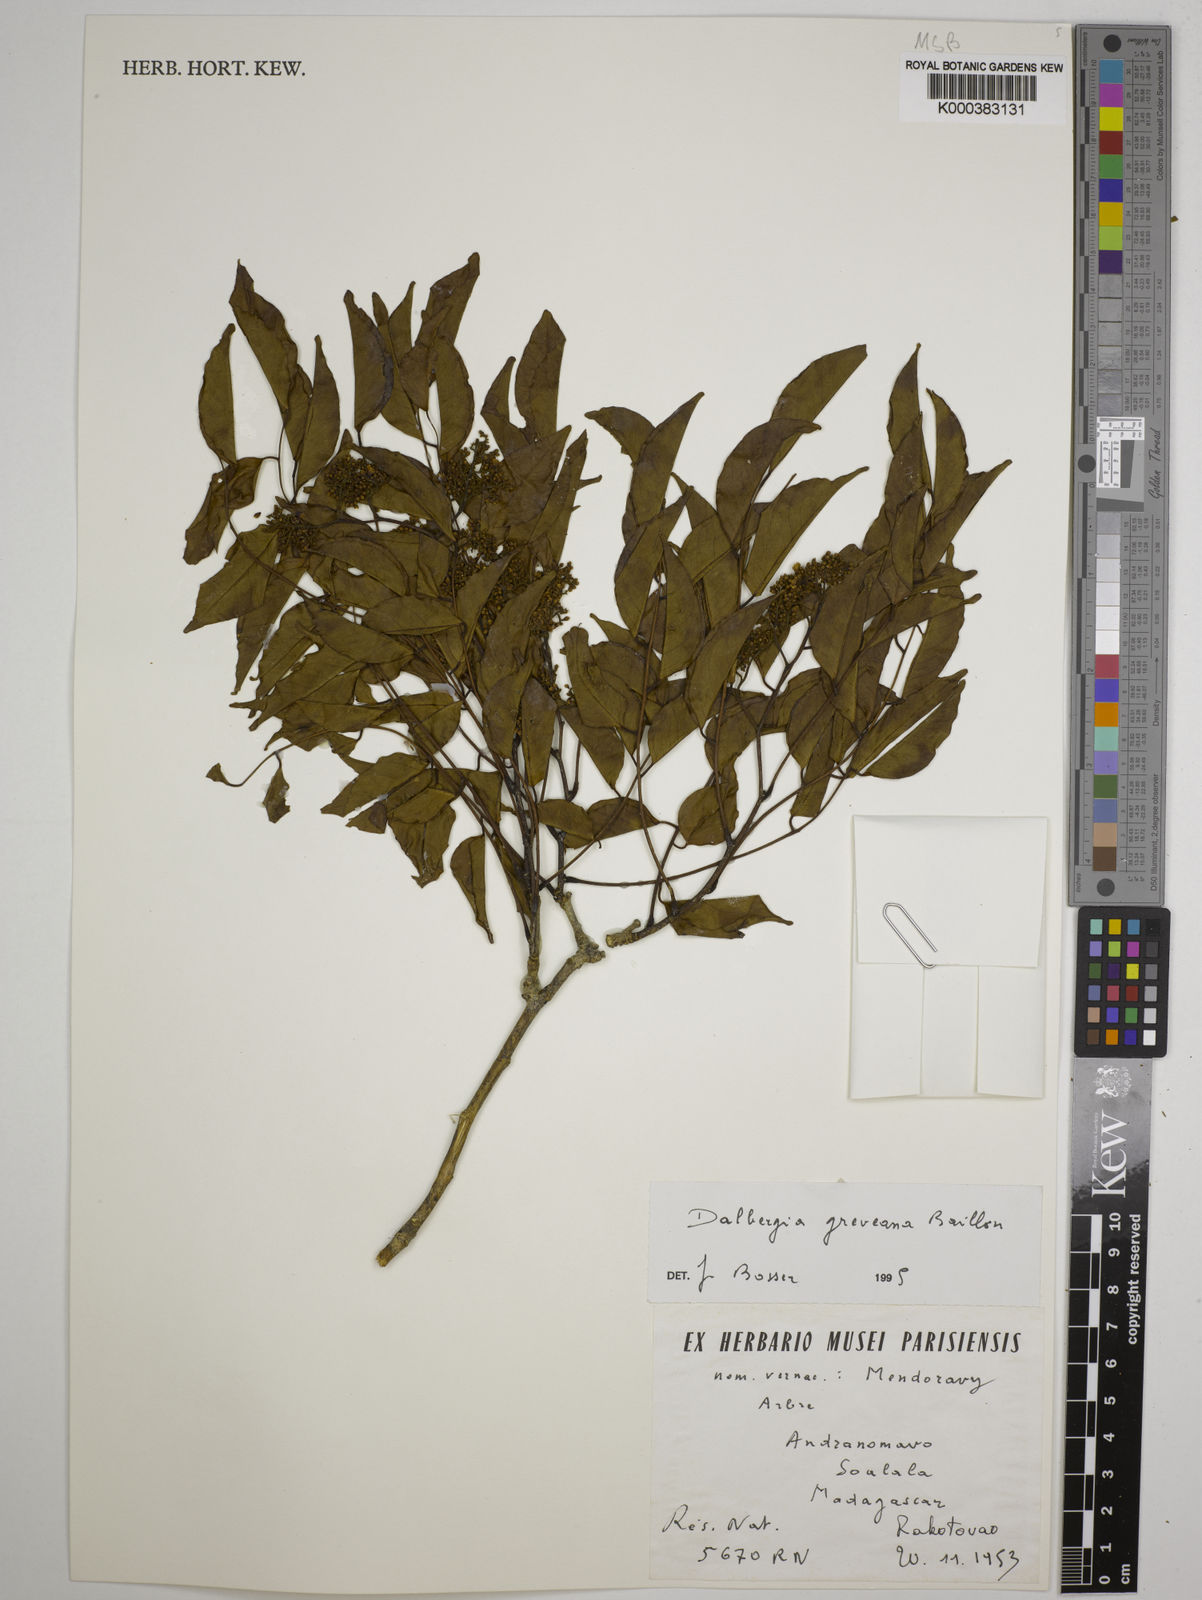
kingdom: Plantae
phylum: Tracheophyta
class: Magnoliopsida
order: Fabales
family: Fabaceae
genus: Dalbergia
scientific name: Dalbergia greveana
